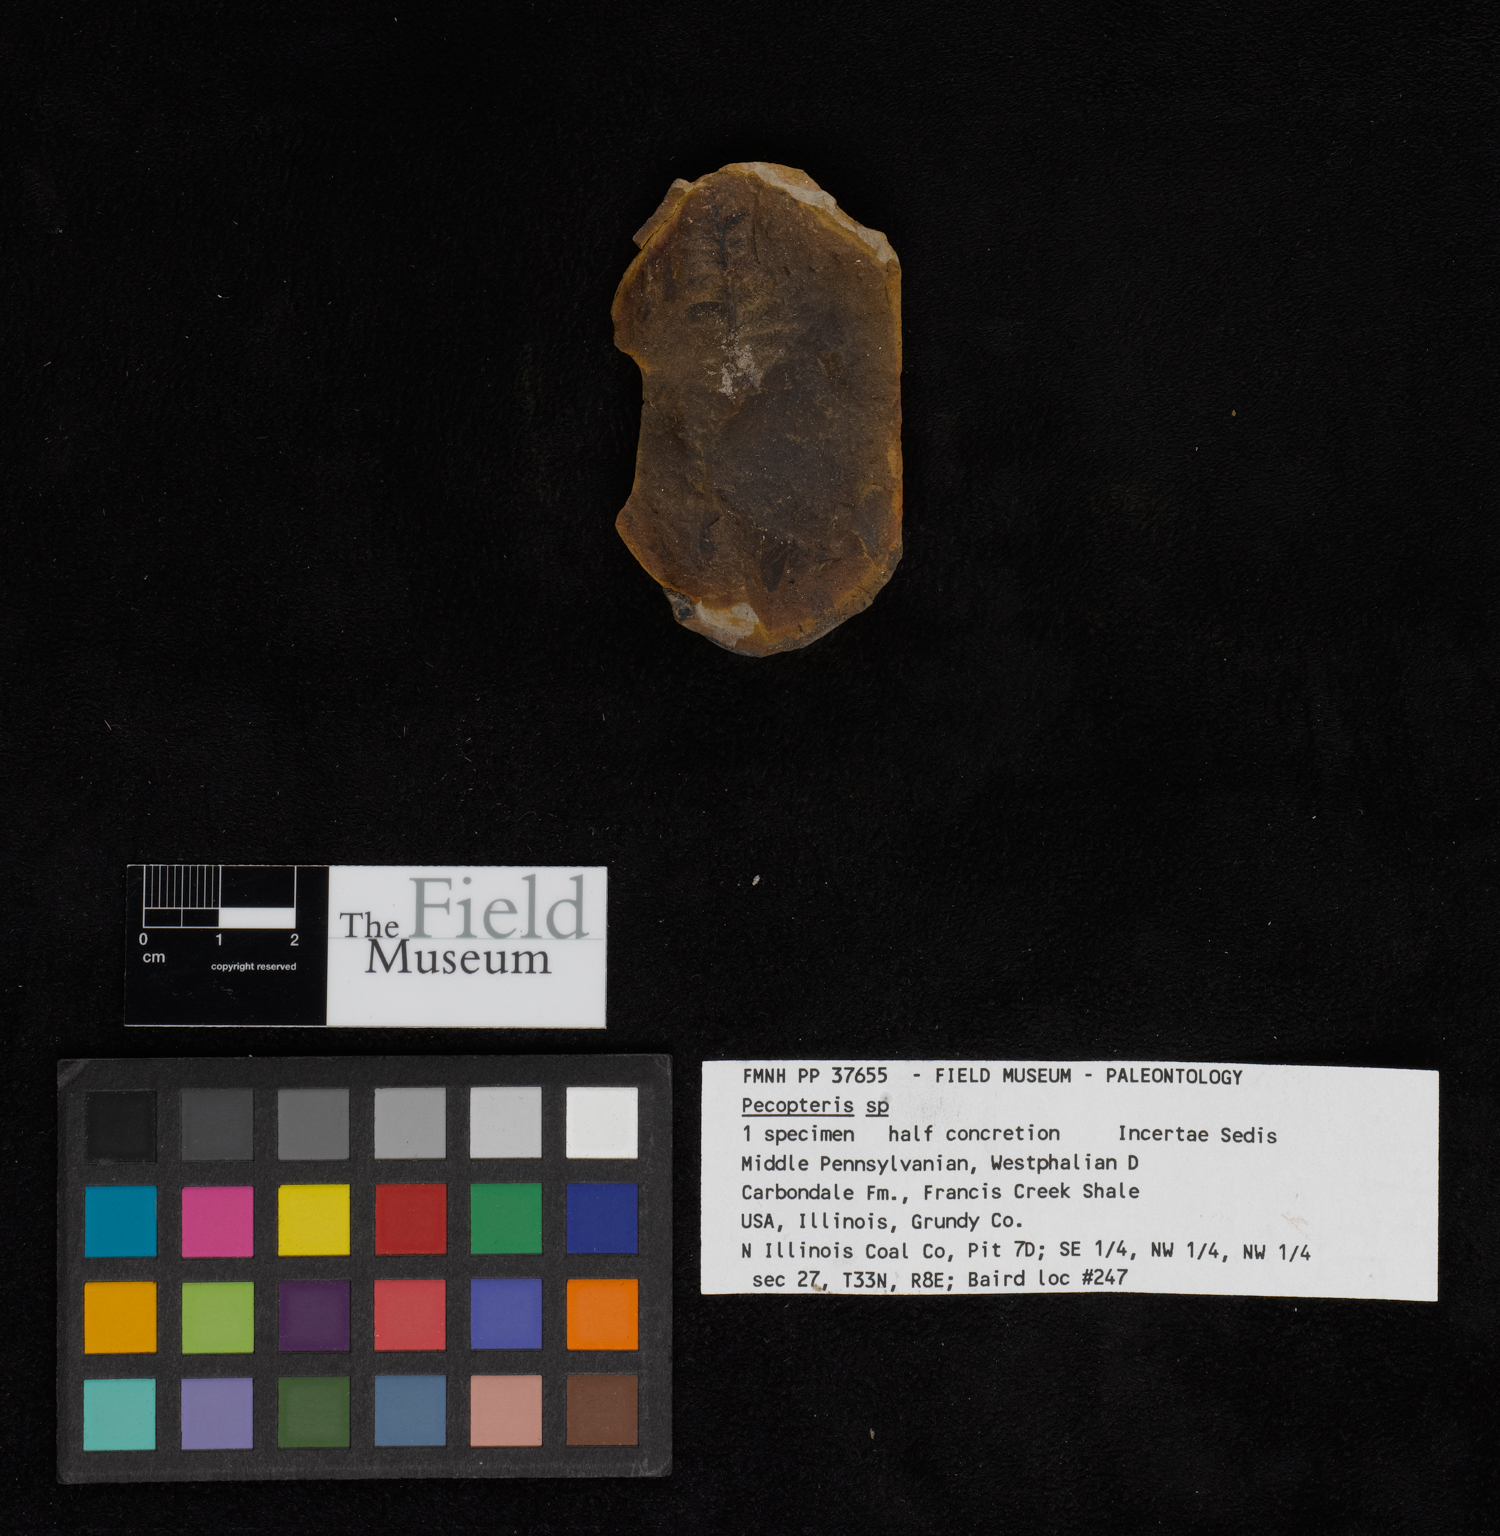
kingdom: Plantae
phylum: Tracheophyta
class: Polypodiopsida
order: Marattiales
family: Asterothecaceae
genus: Pecopteris
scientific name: Pecopteris
